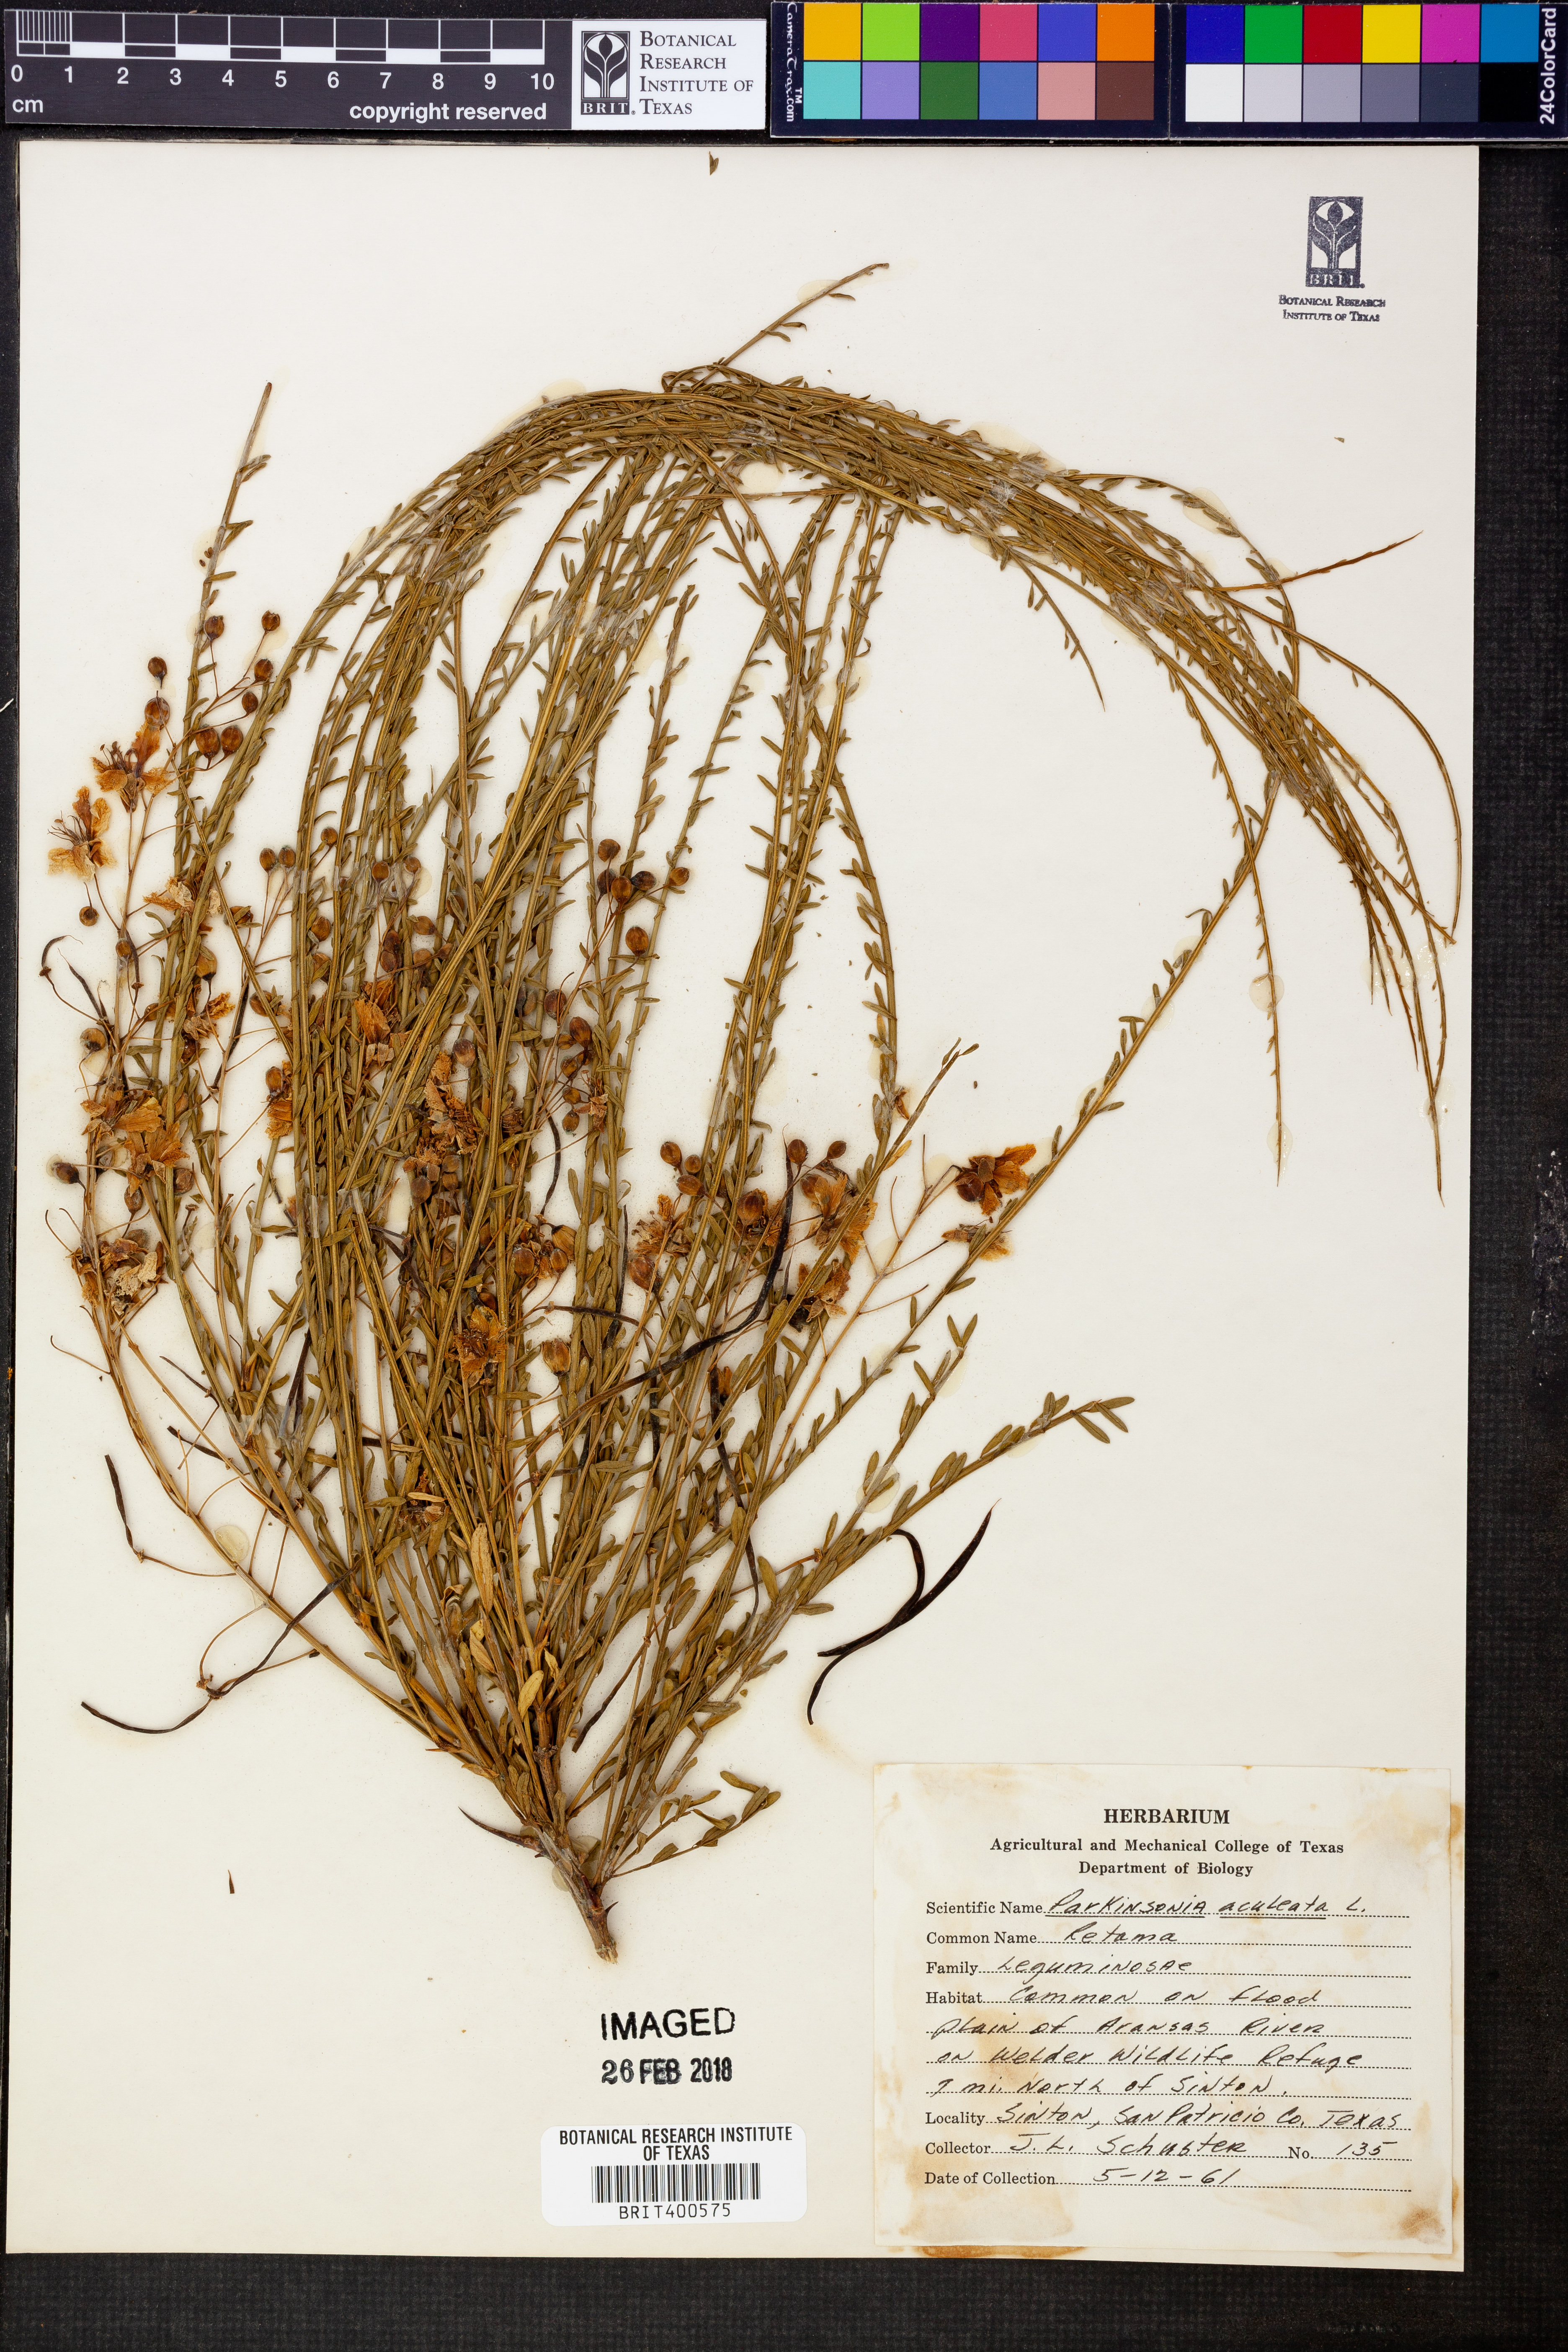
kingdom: Plantae
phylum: Tracheophyta
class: Magnoliopsida
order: Fabales
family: Fabaceae
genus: Parkinsonia
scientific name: Parkinsonia aculeata
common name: Jerusalem thorn
